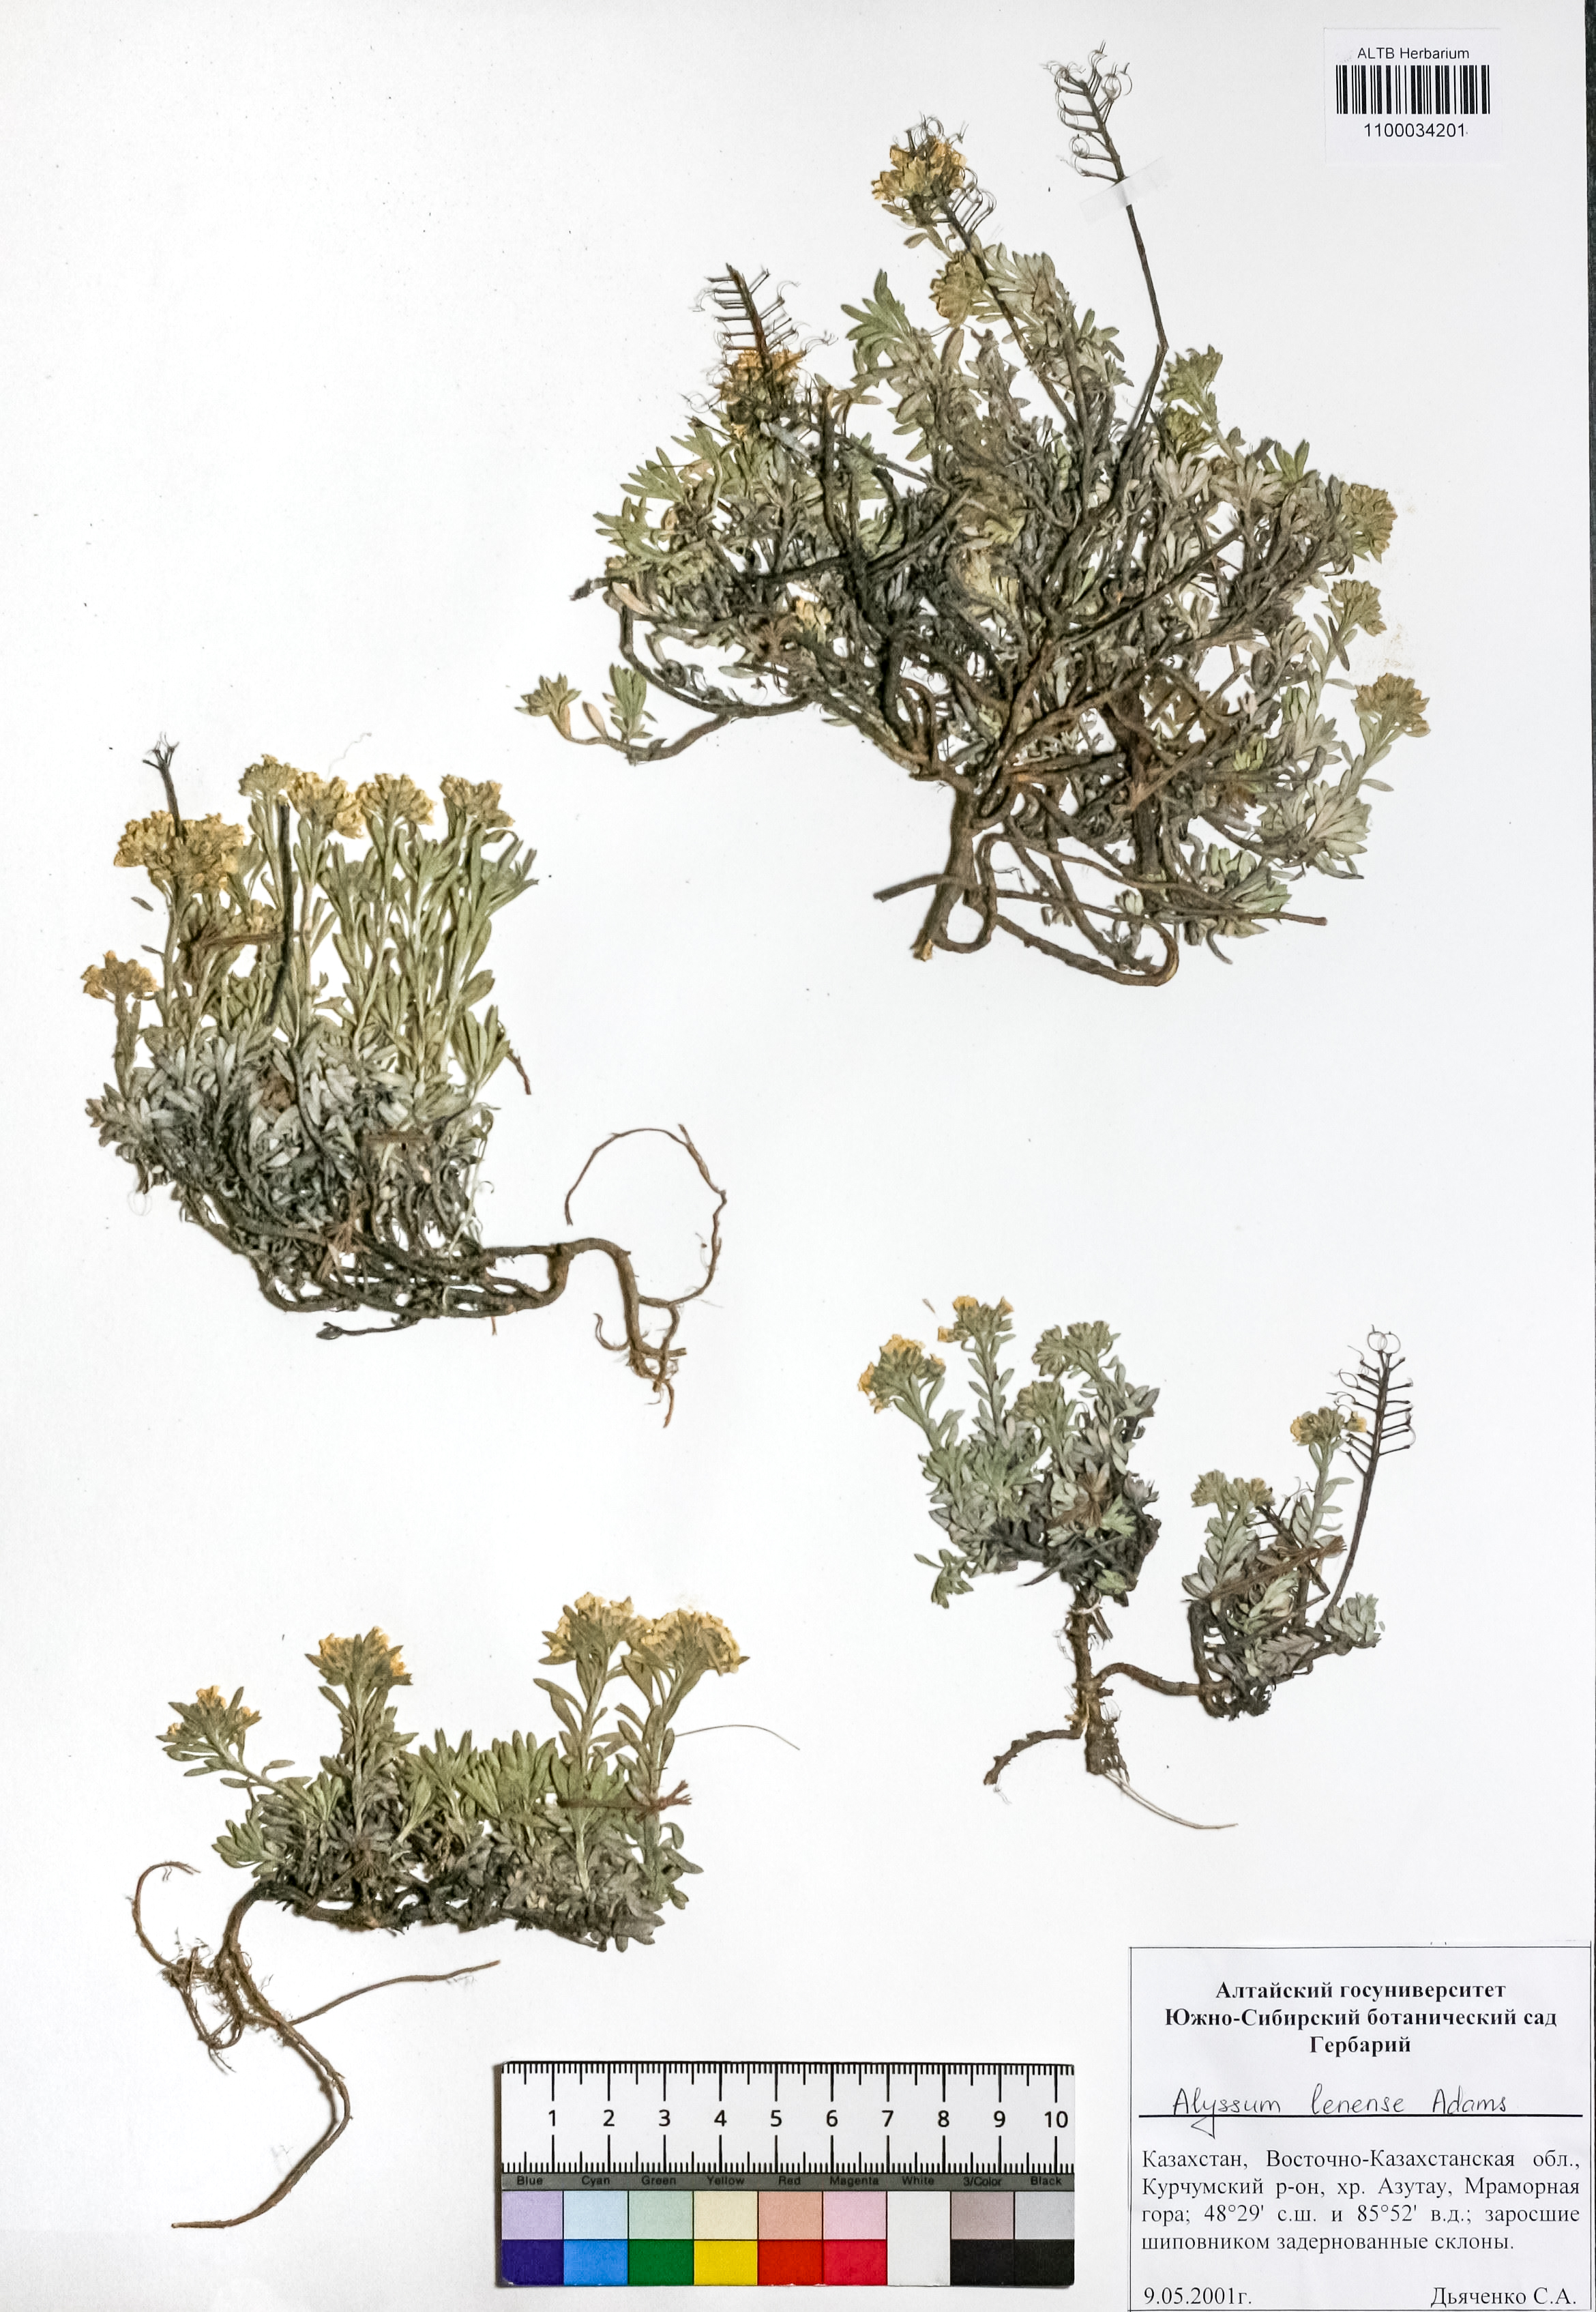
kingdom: Plantae
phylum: Tracheophyta
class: Magnoliopsida
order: Brassicales
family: Brassicaceae
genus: Alyssum
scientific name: Alyssum lenense
